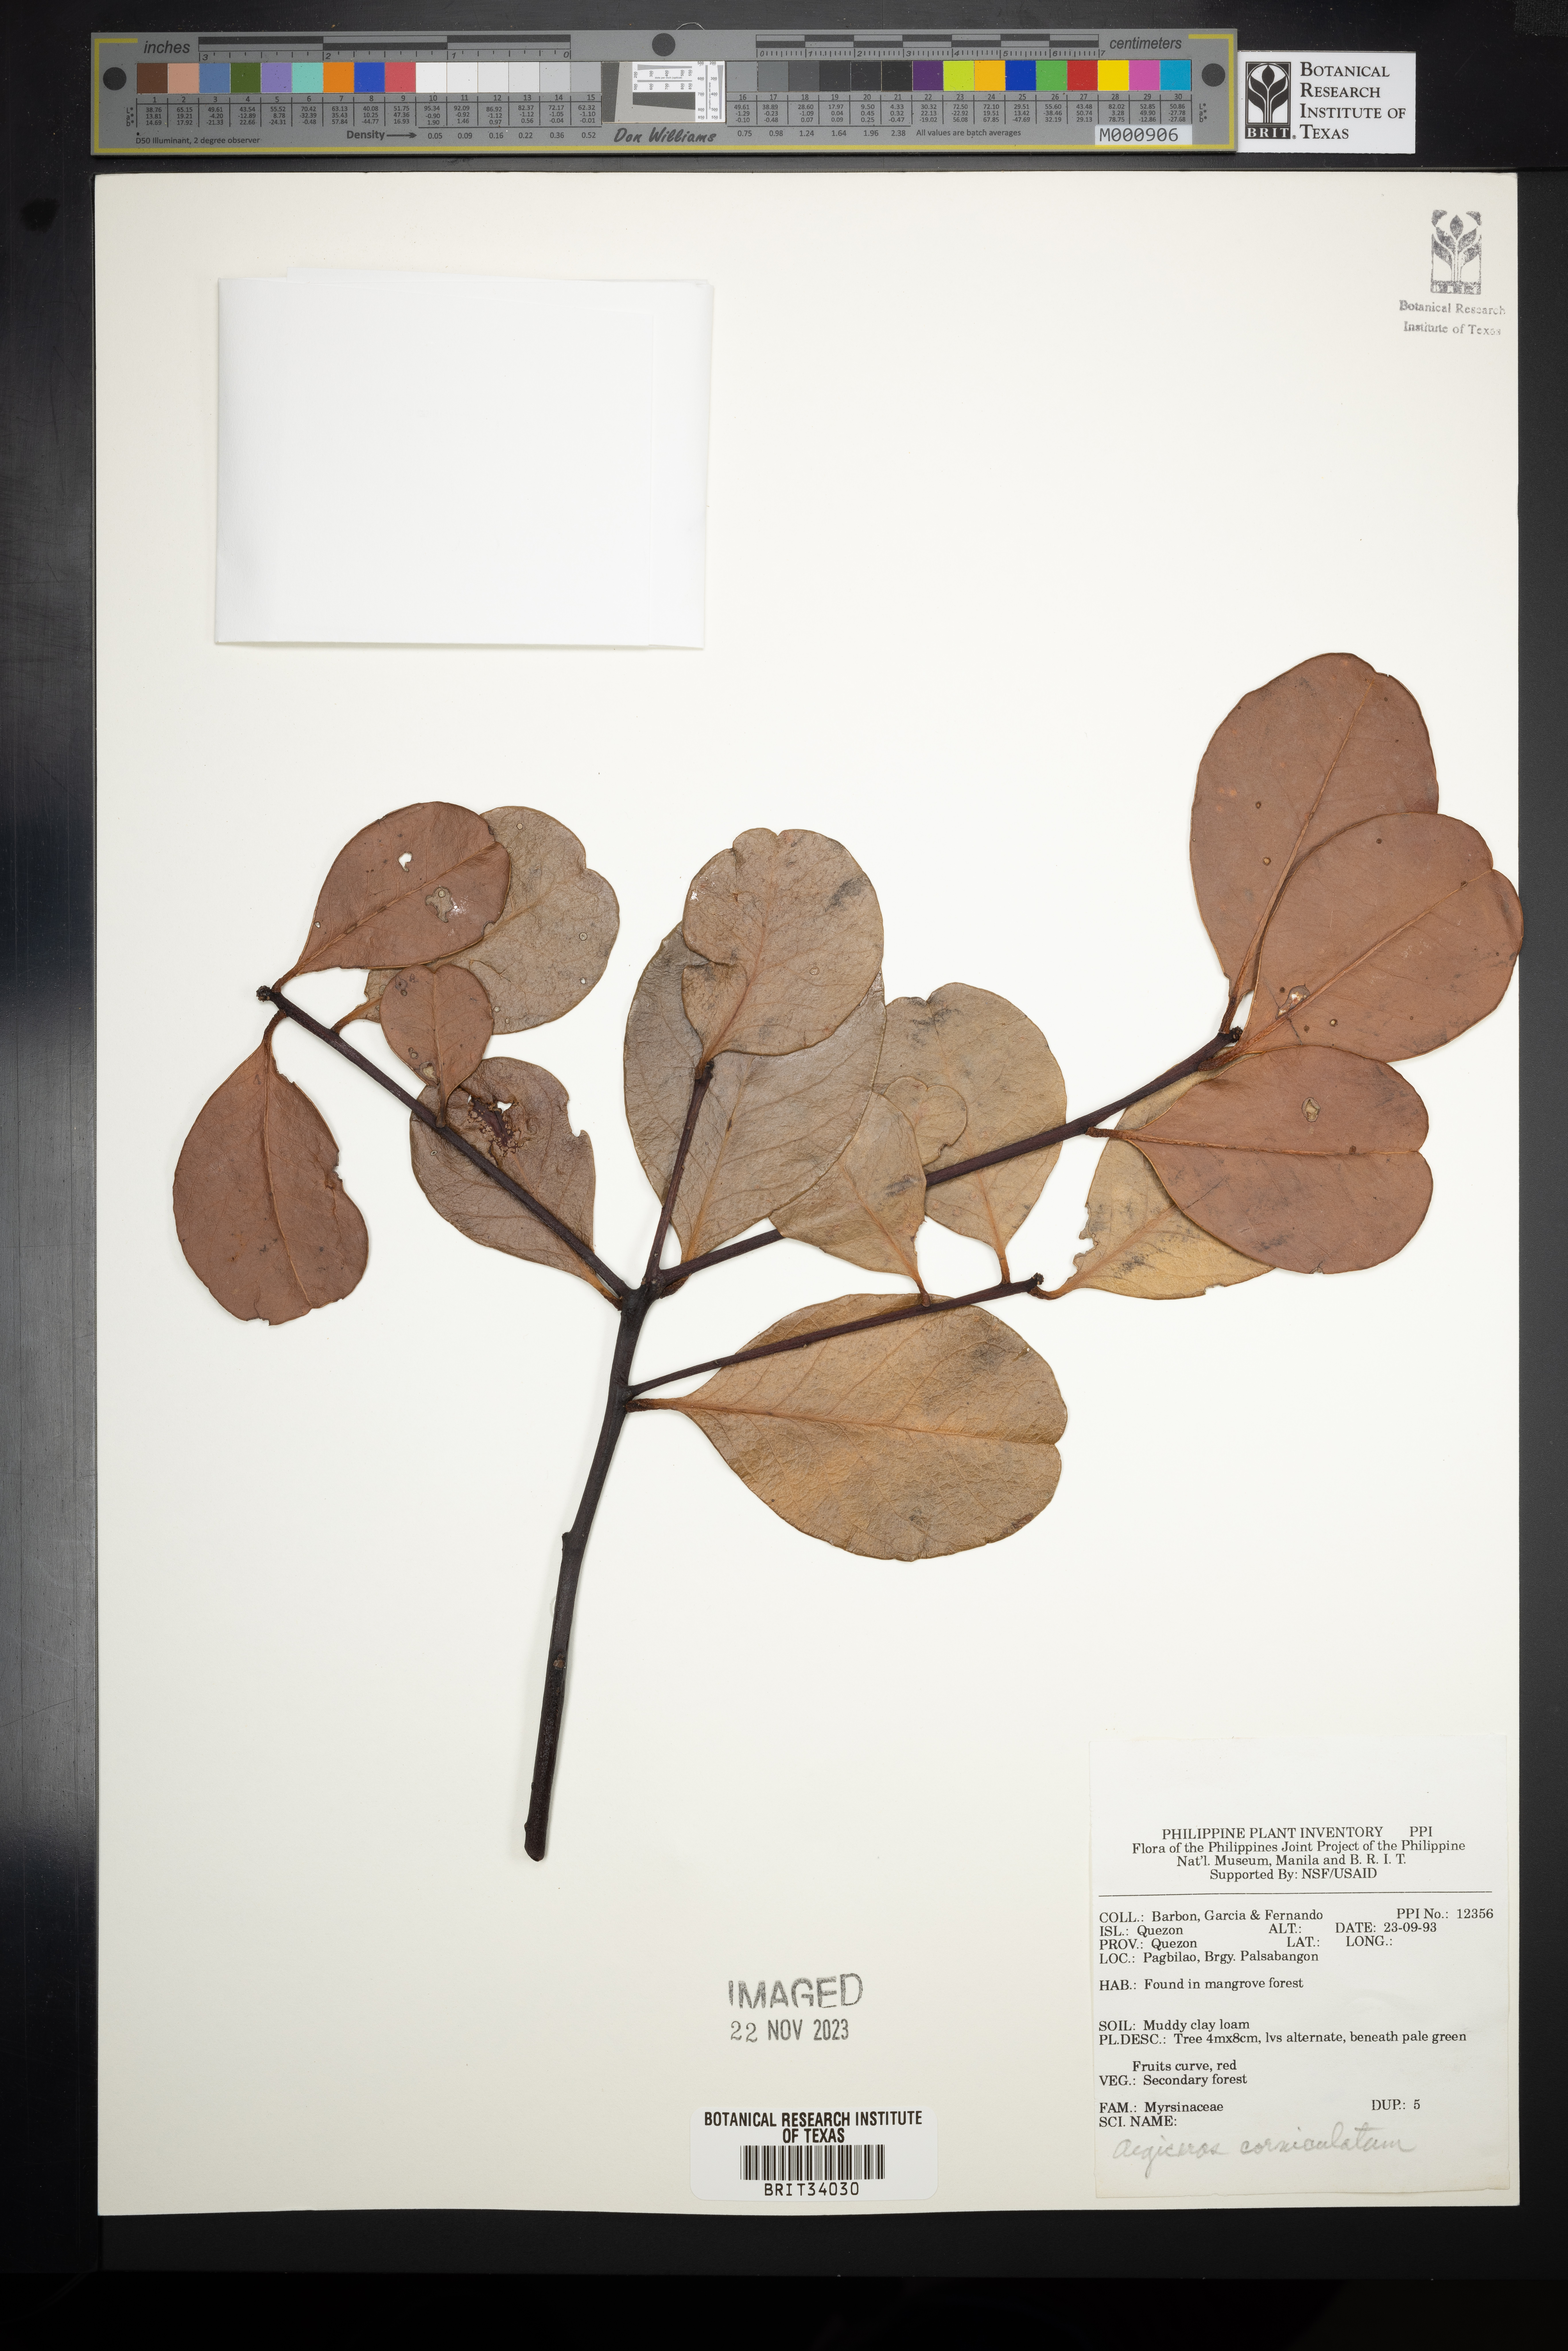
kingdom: Plantae
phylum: Tracheophyta
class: Magnoliopsida
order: Ericales
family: Primulaceae
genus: Aegiceras
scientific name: Aegiceras corniculatum
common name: River mangrove
